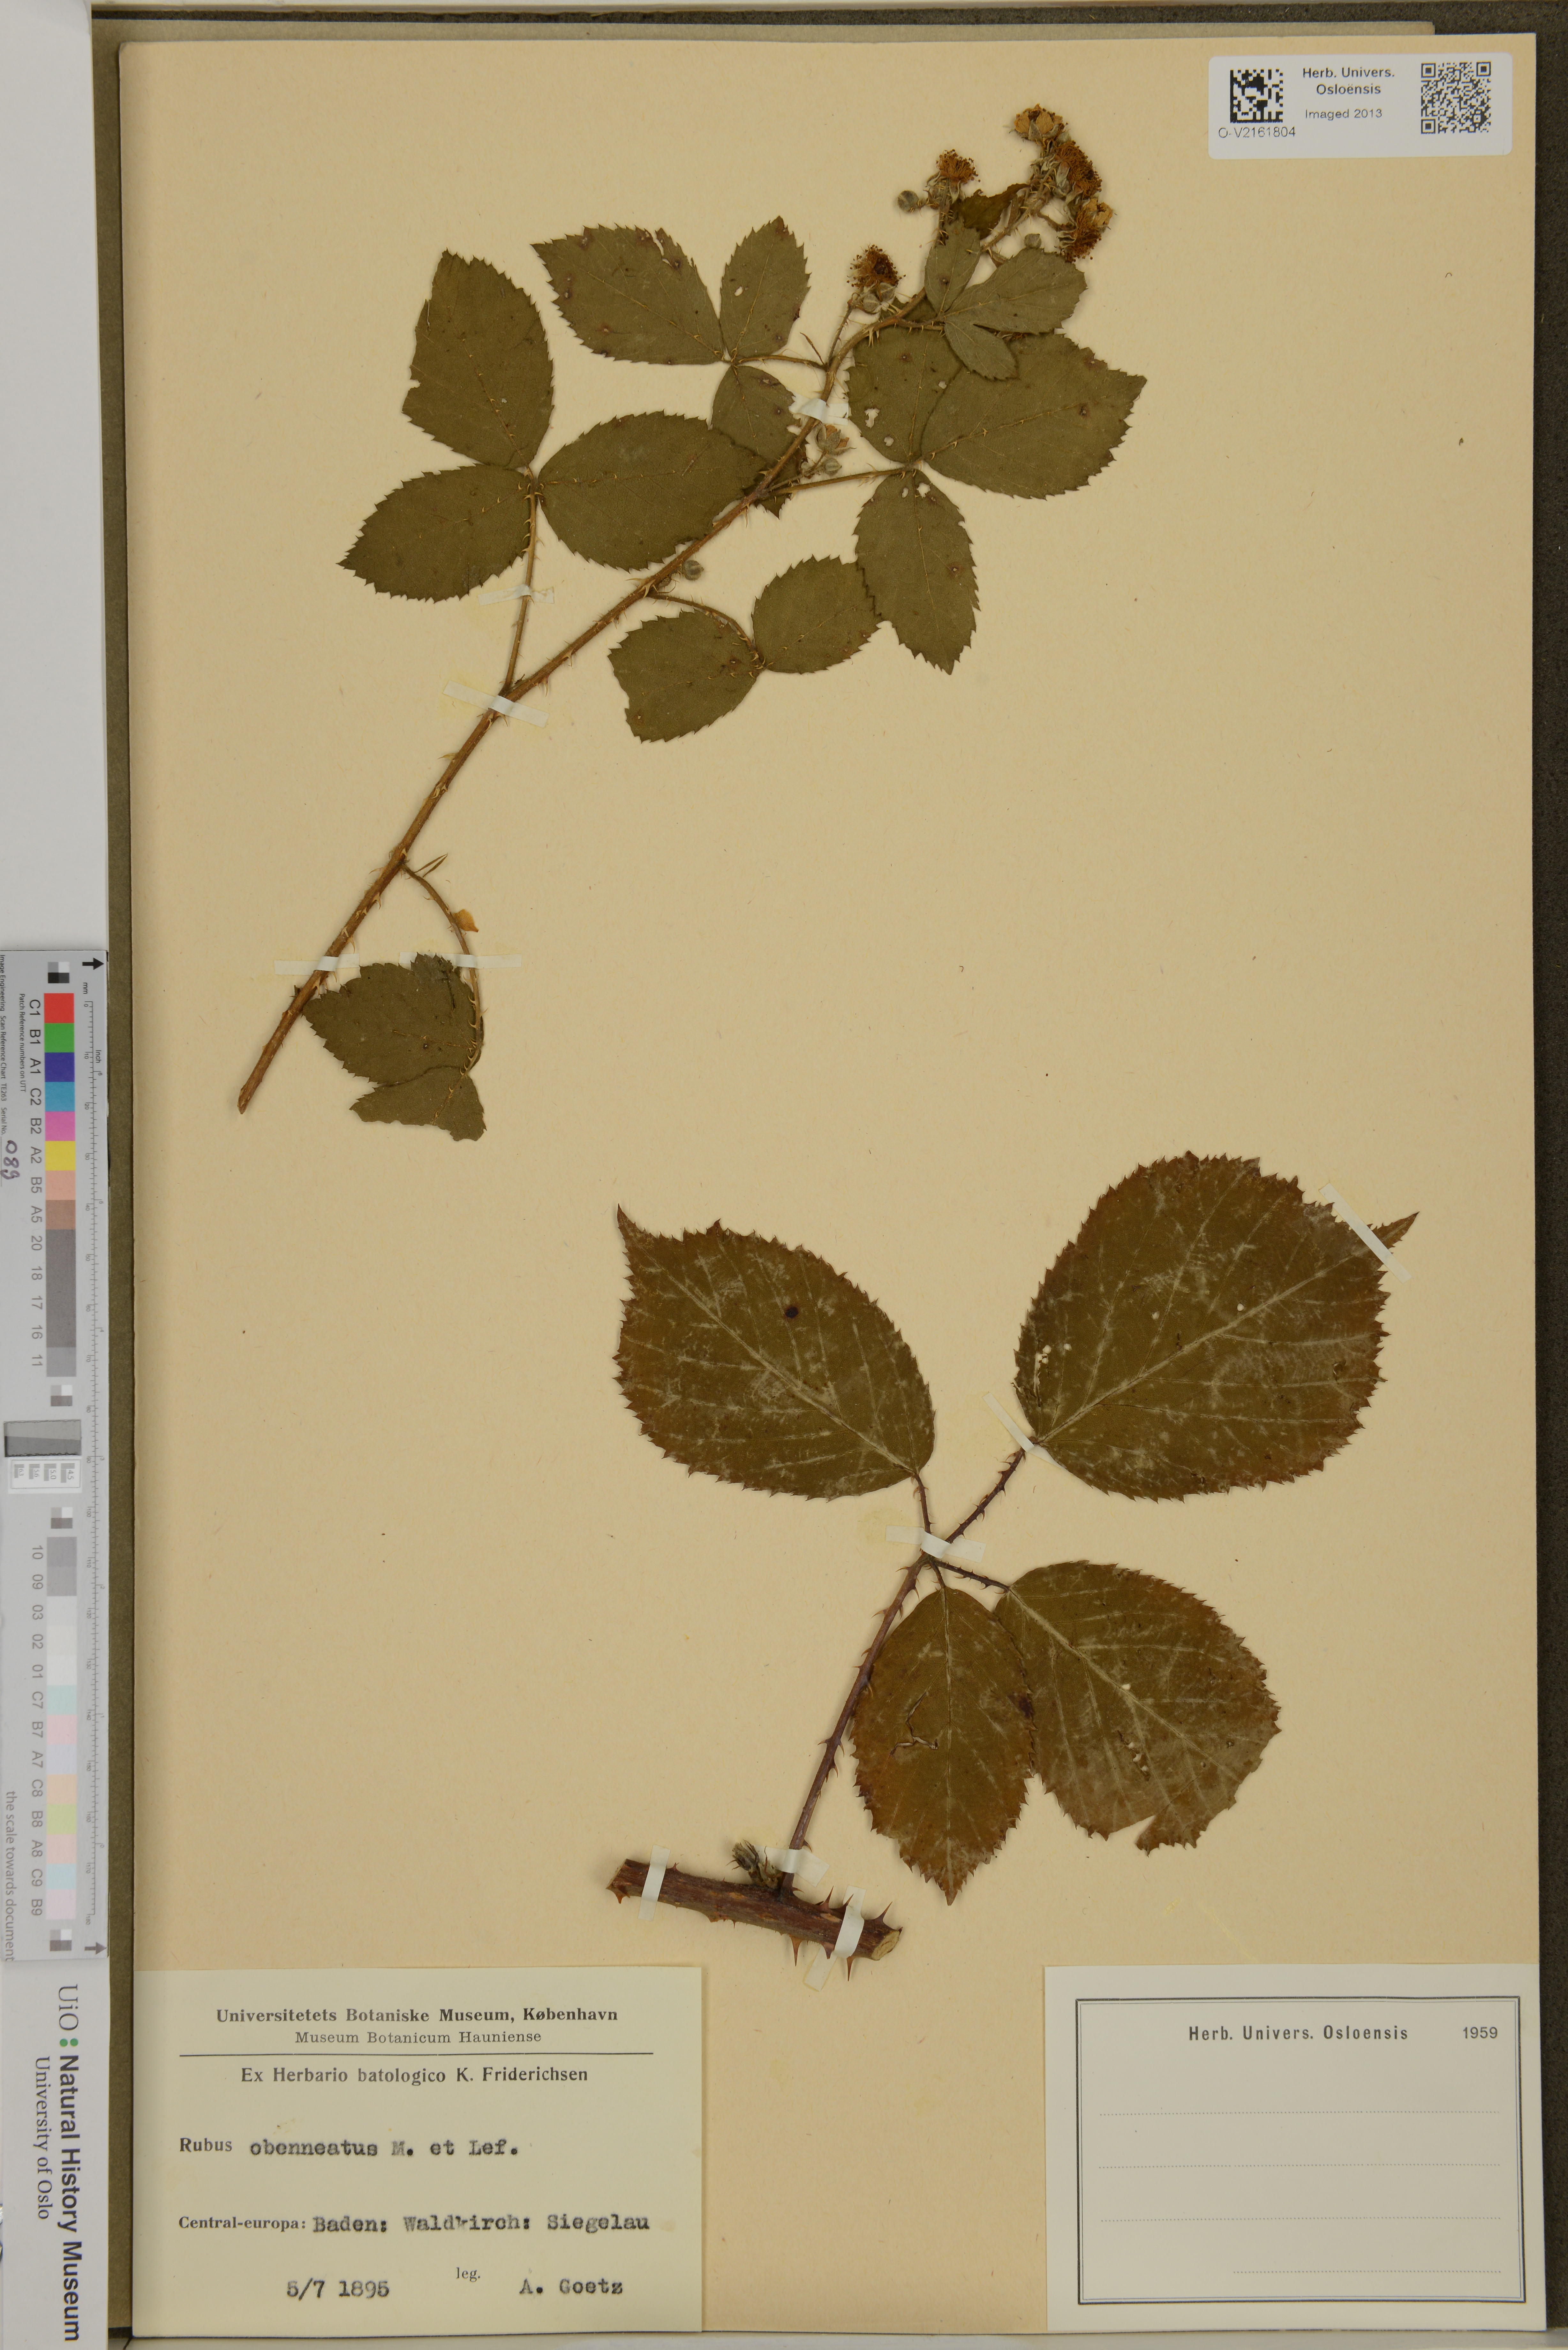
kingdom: Plantae
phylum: Tracheophyta
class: Magnoliopsida
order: Rosales
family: Rosaceae
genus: Rubus
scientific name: Rubus
